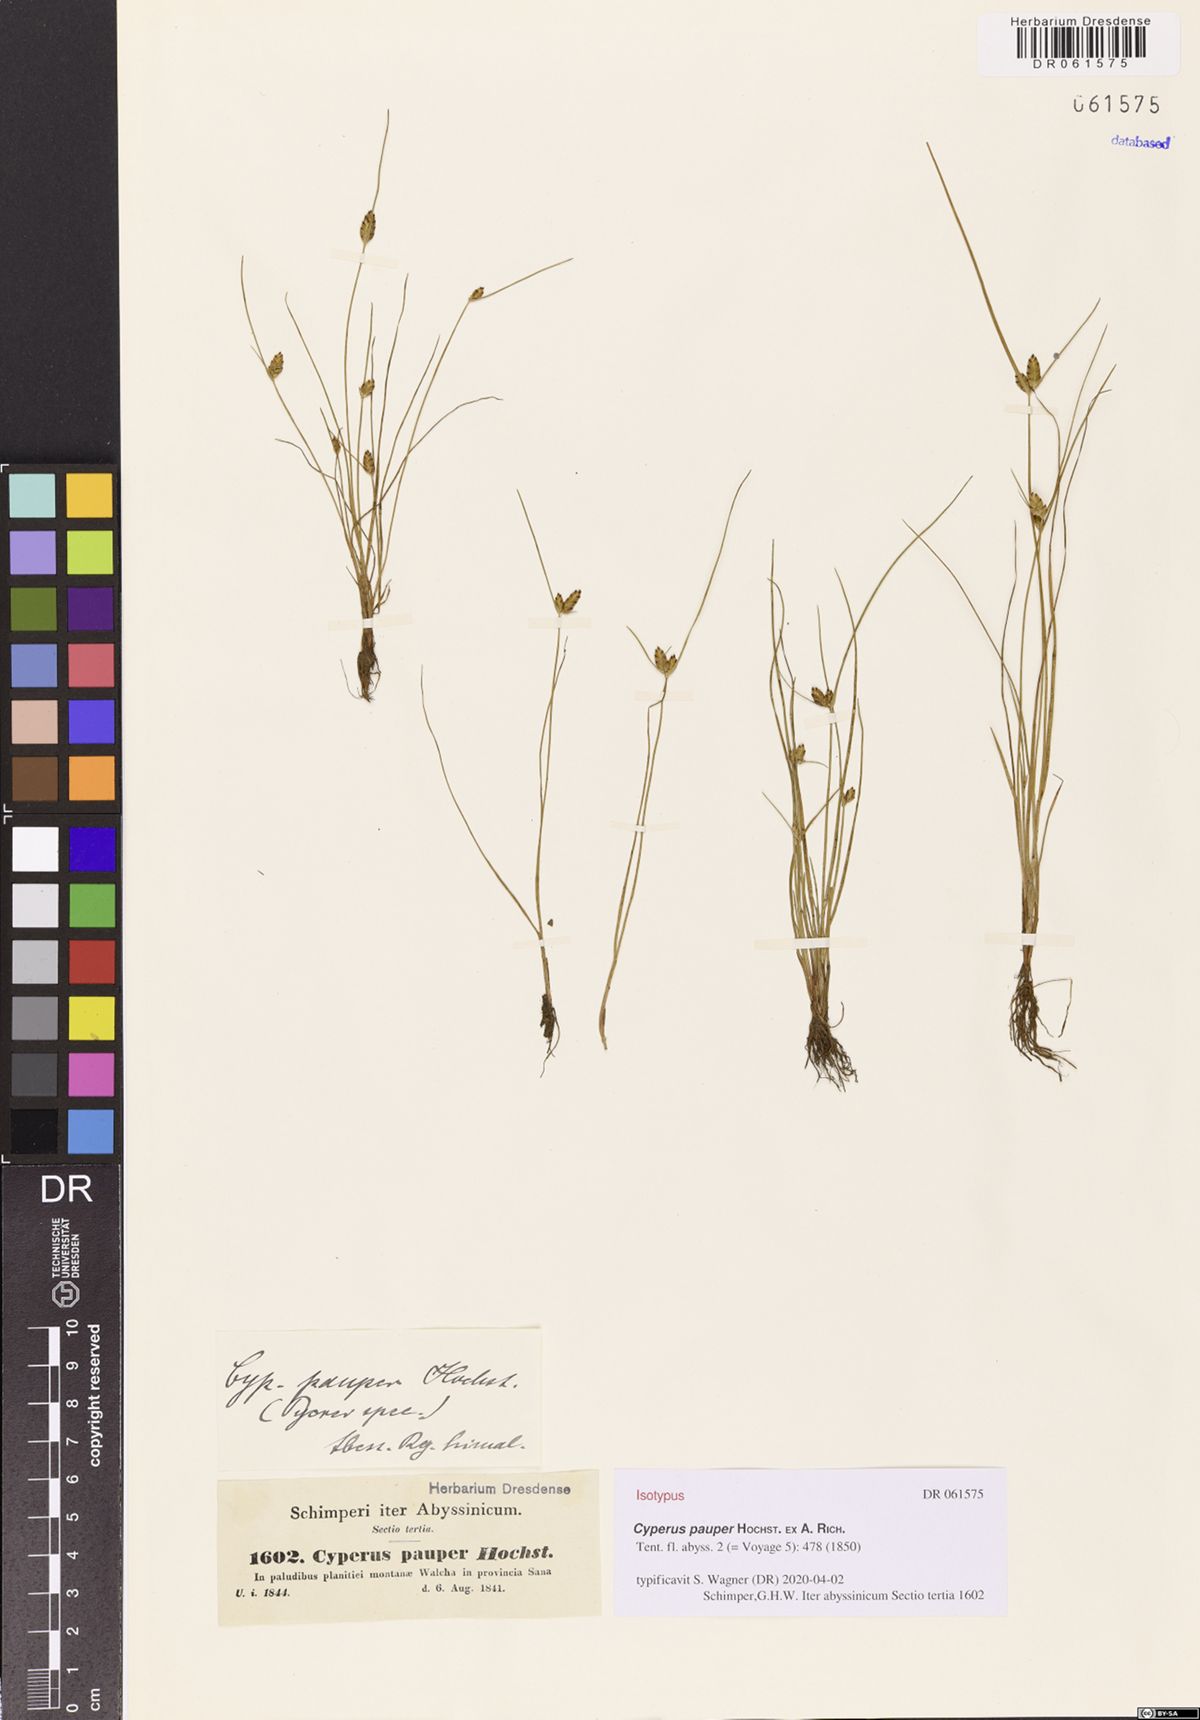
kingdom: Plantae
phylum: Tracheophyta
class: Liliopsida
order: Poales
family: Cyperaceae
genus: Cyperus
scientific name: Cyperus pauper
